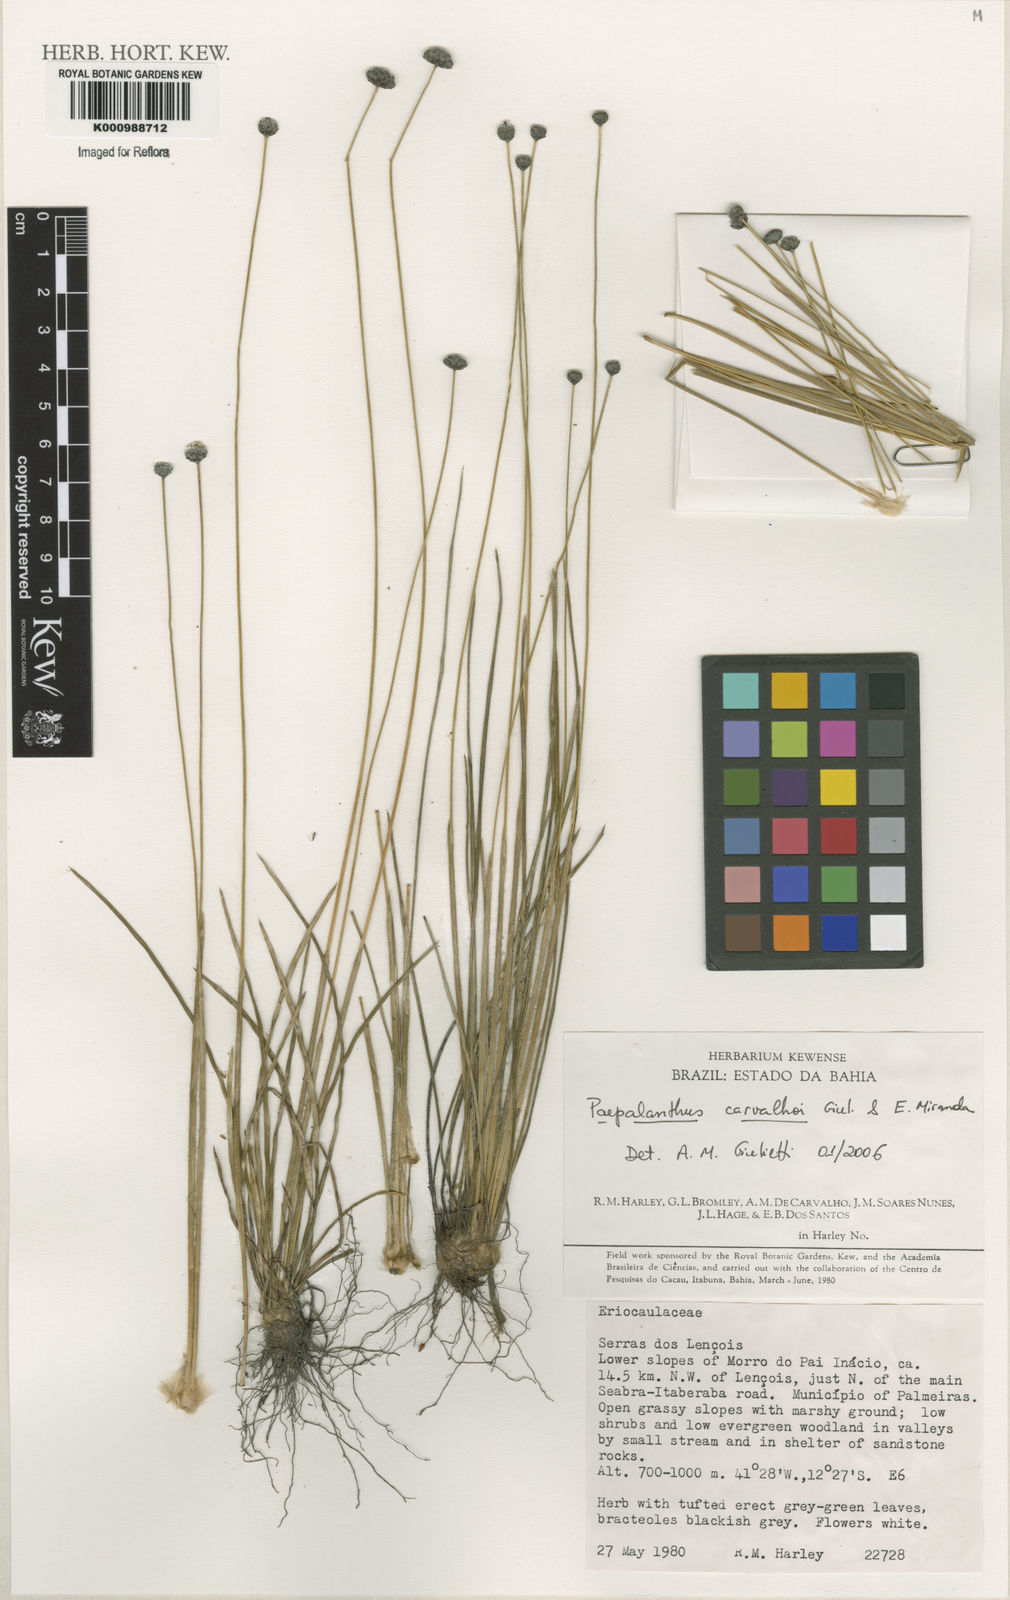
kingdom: Plantae
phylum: Tracheophyta
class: Liliopsida
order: Poales
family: Eriocaulaceae
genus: Paepalanthus
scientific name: Paepalanthus carvalhoi
